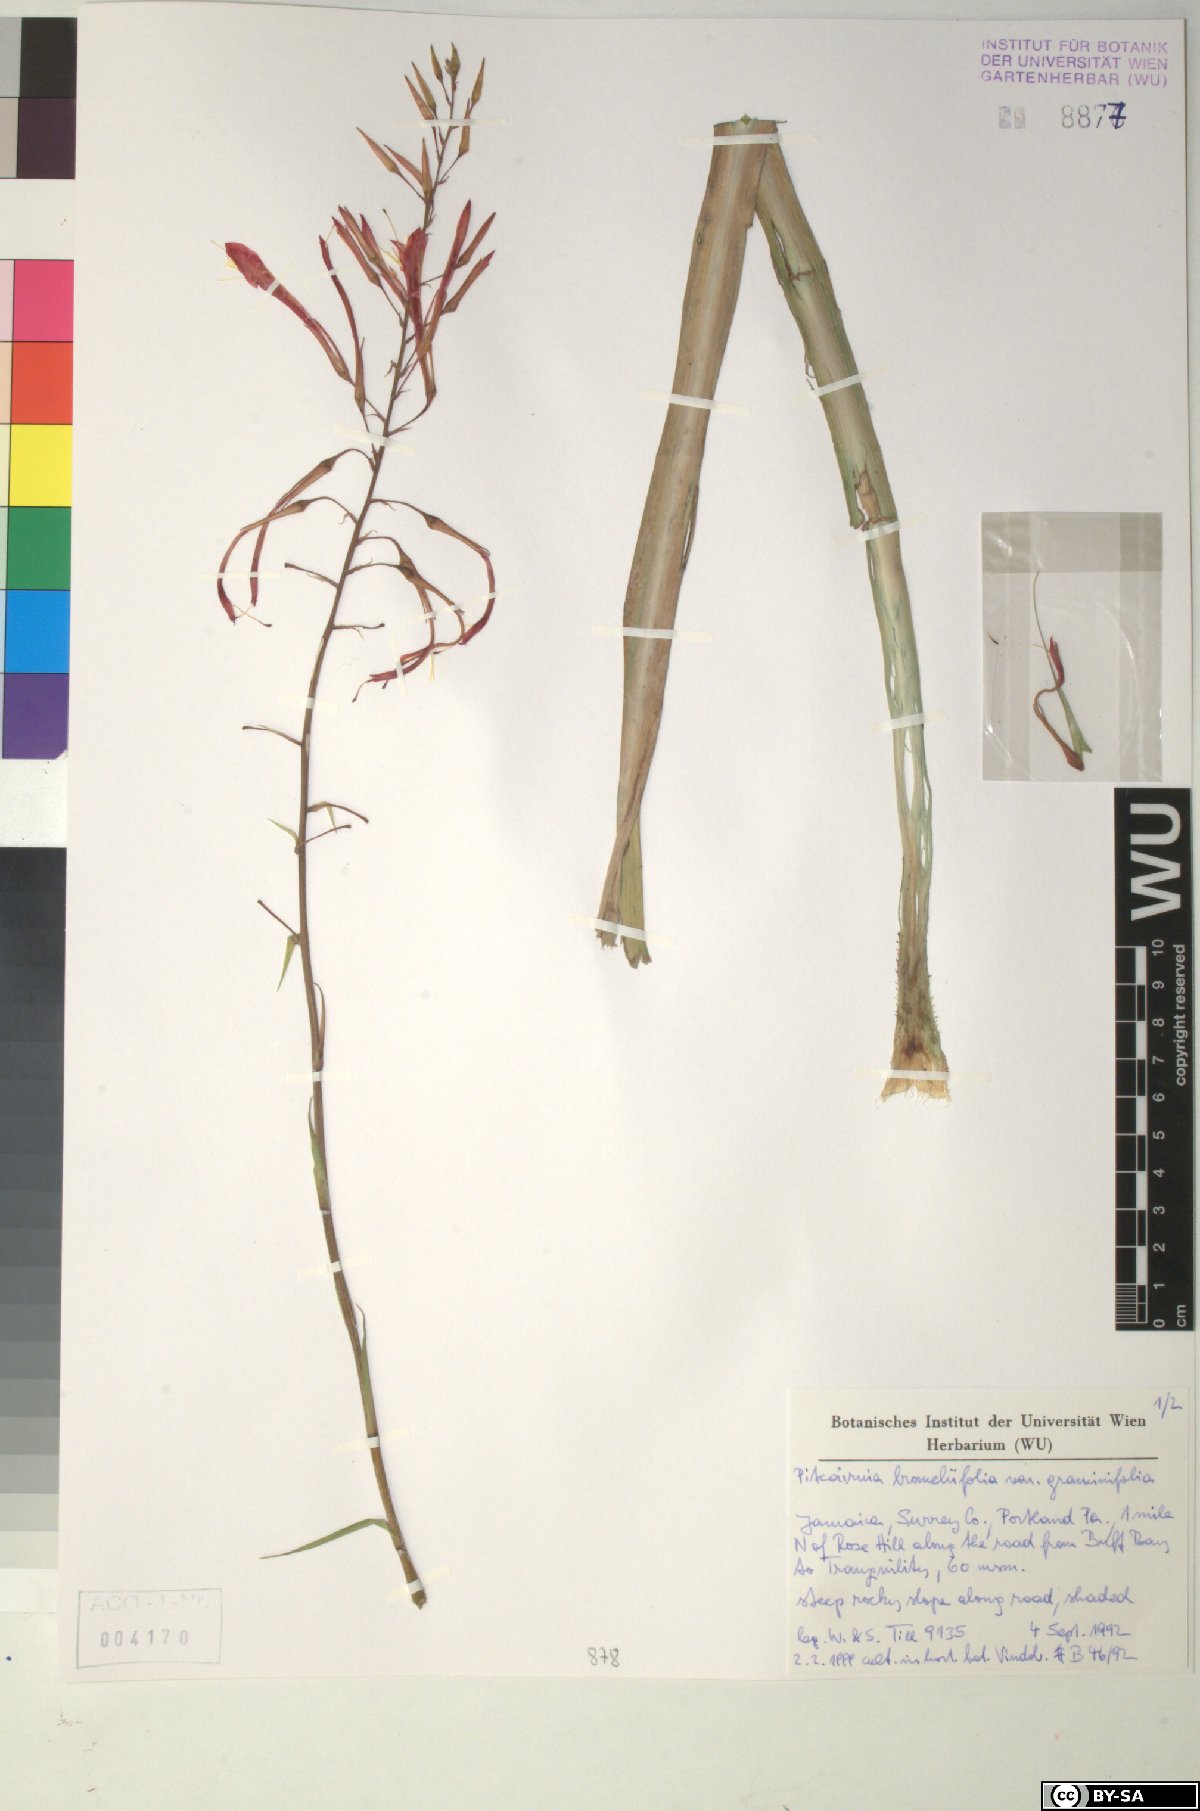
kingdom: Plantae
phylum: Tracheophyta
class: Liliopsida
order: Poales
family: Bromeliaceae
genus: Pitcairnia
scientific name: Pitcairnia bromeliifolia
